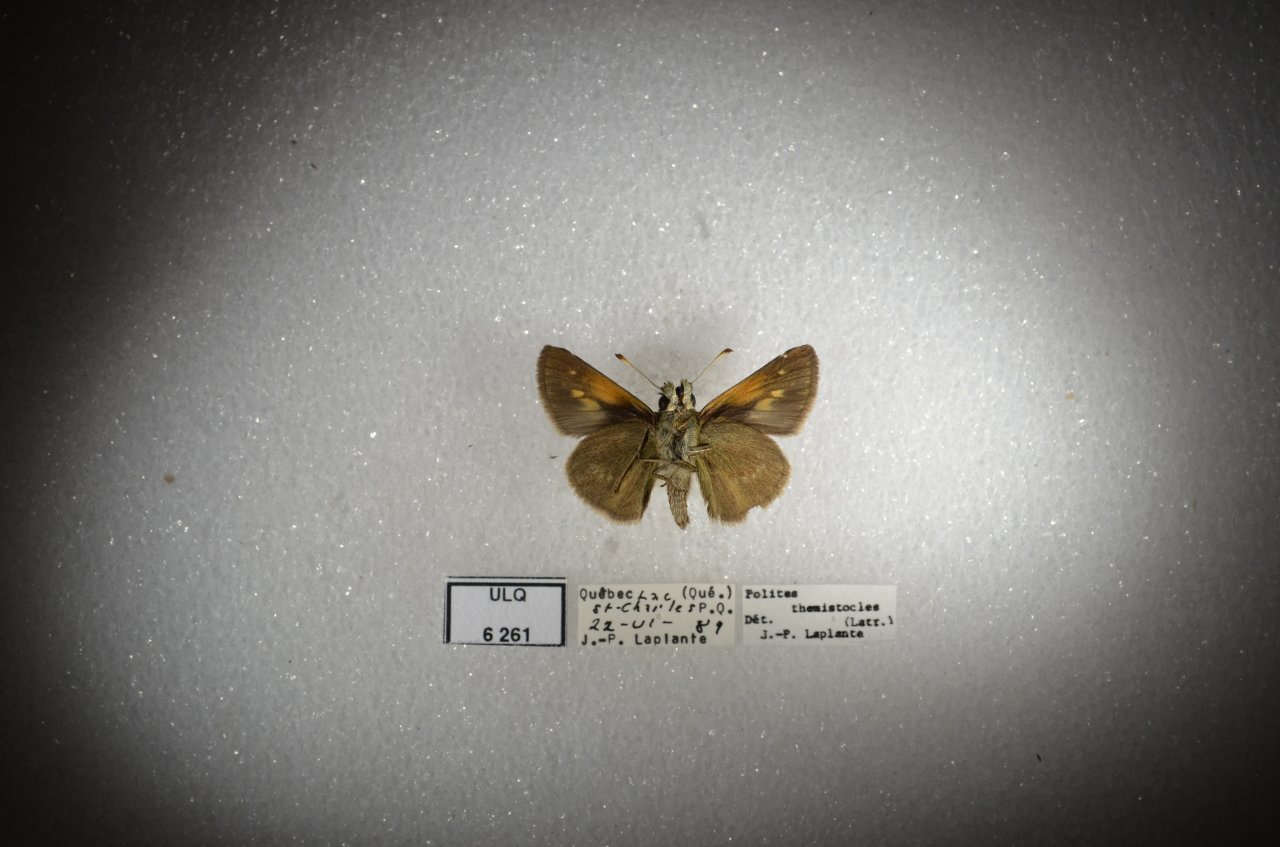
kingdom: Animalia
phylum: Arthropoda
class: Insecta
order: Lepidoptera
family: Hesperiidae
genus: Polites
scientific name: Polites themistocles
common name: Tawny-edged Skipper
